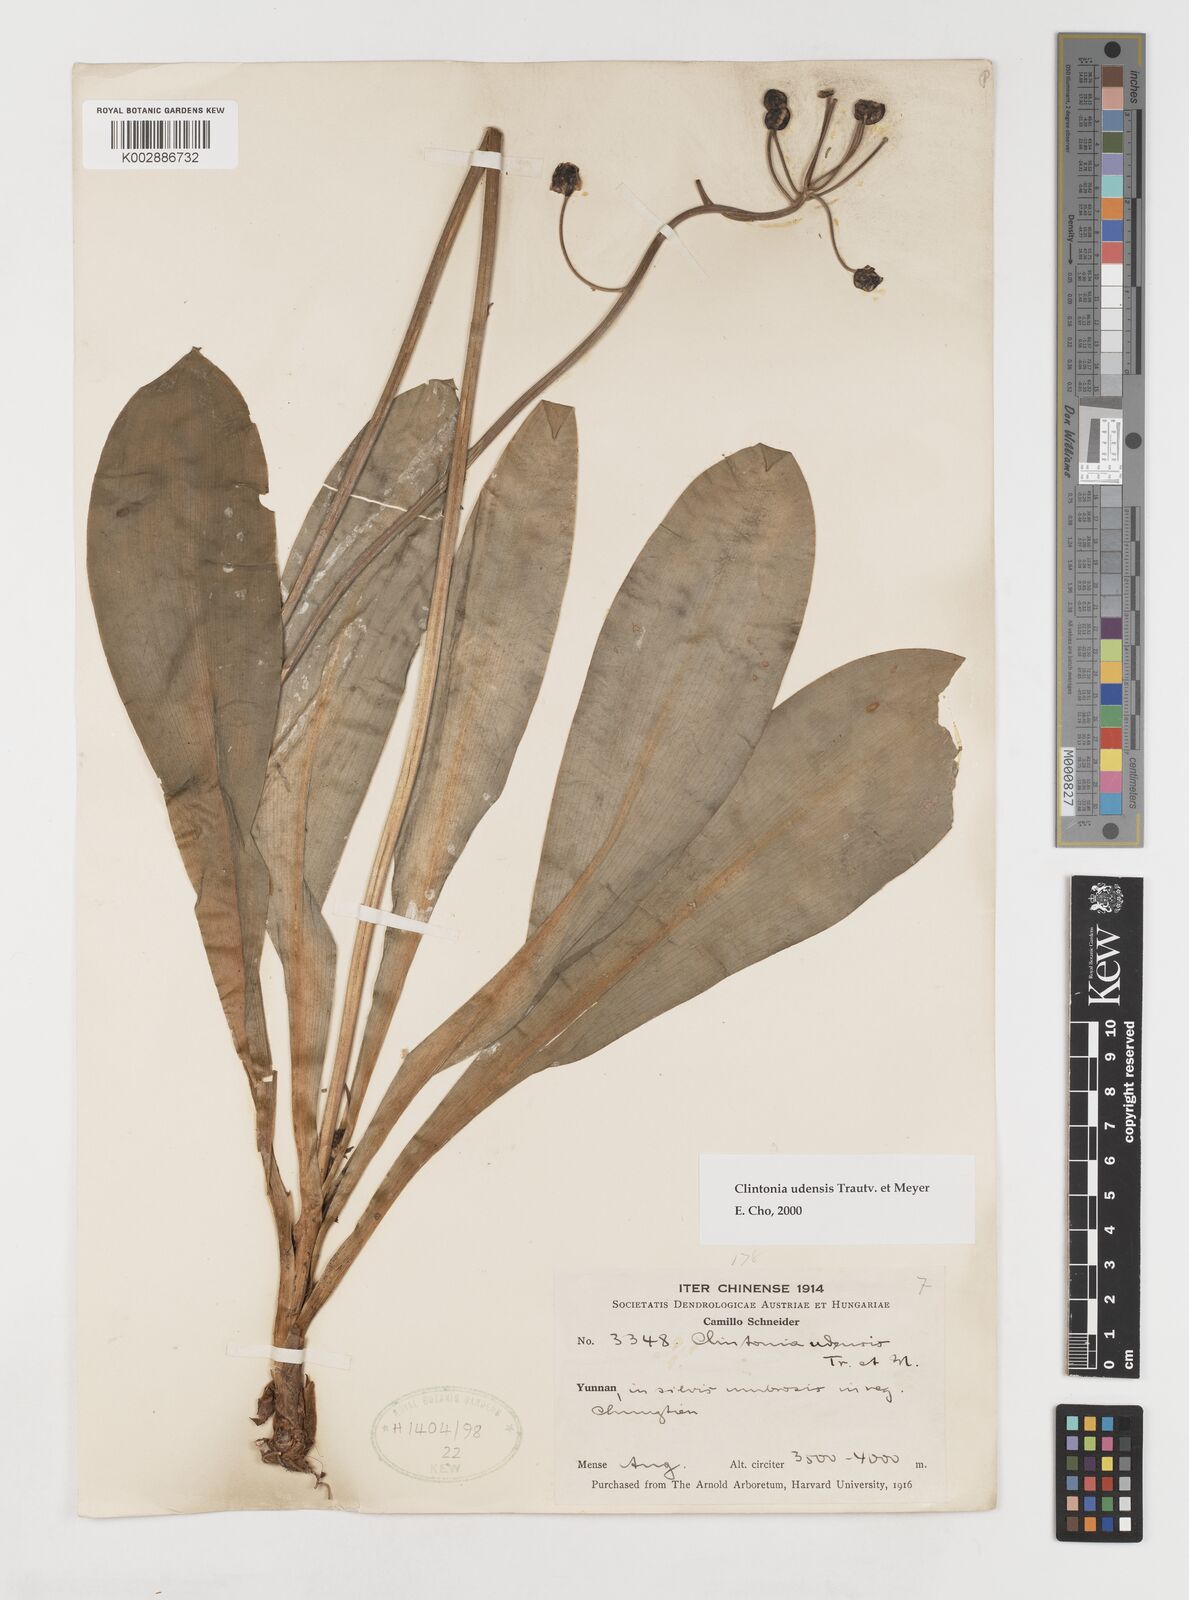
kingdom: Plantae
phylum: Tracheophyta
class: Liliopsida
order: Liliales
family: Liliaceae
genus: Clintonia
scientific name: Clintonia udensis
